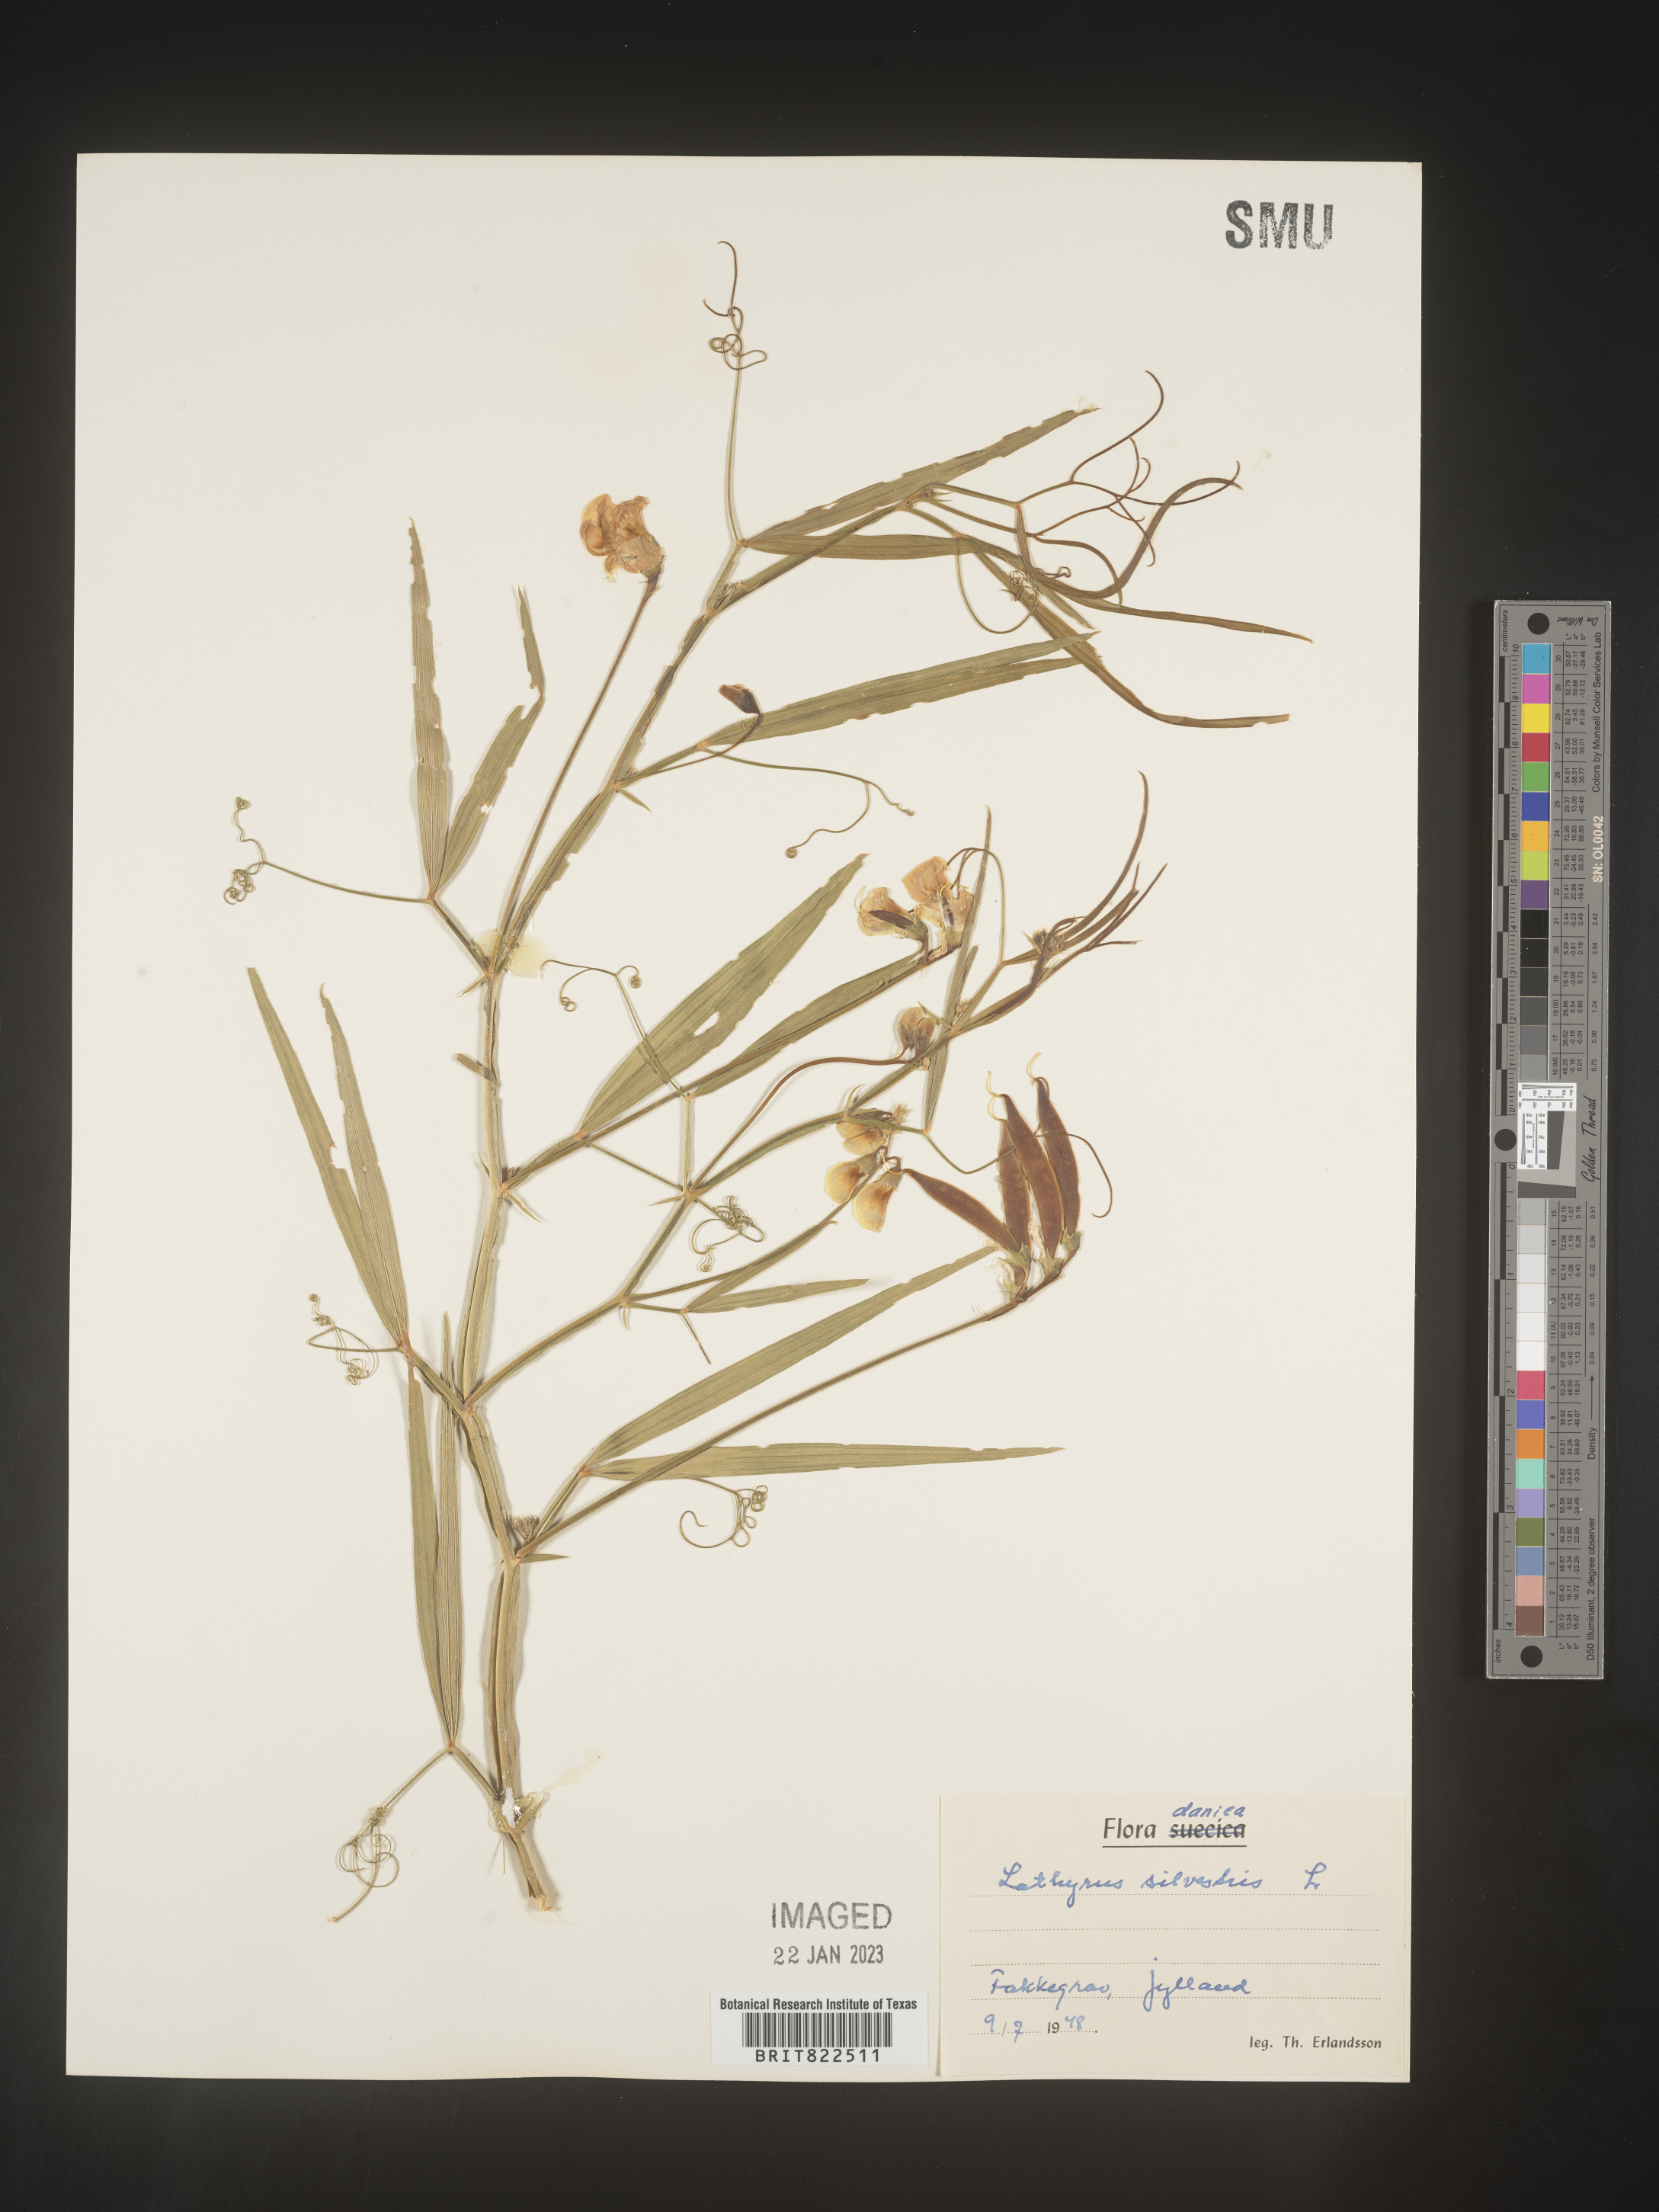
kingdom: Plantae
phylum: Tracheophyta
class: Magnoliopsida
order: Fabales
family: Fabaceae
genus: Lathyrus
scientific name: Lathyrus
